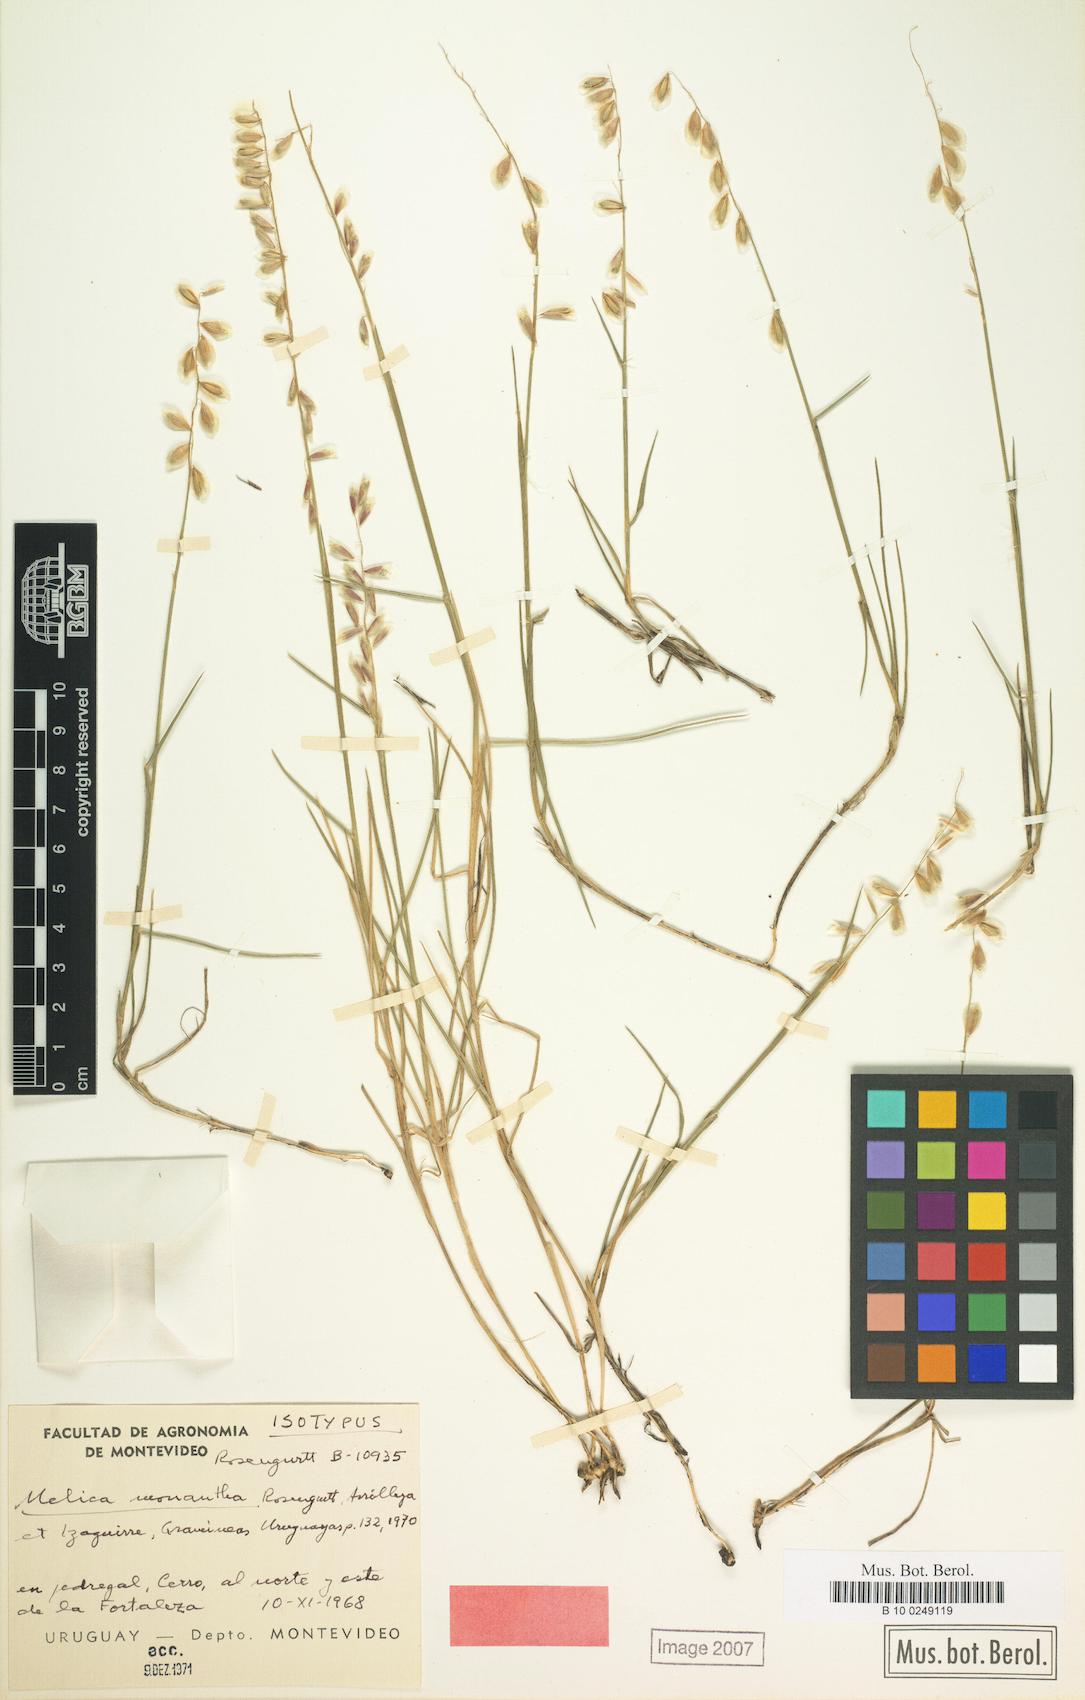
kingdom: Plantae
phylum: Tracheophyta
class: Liliopsida
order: Poales
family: Poaceae
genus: Melica
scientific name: Melica eremophila
